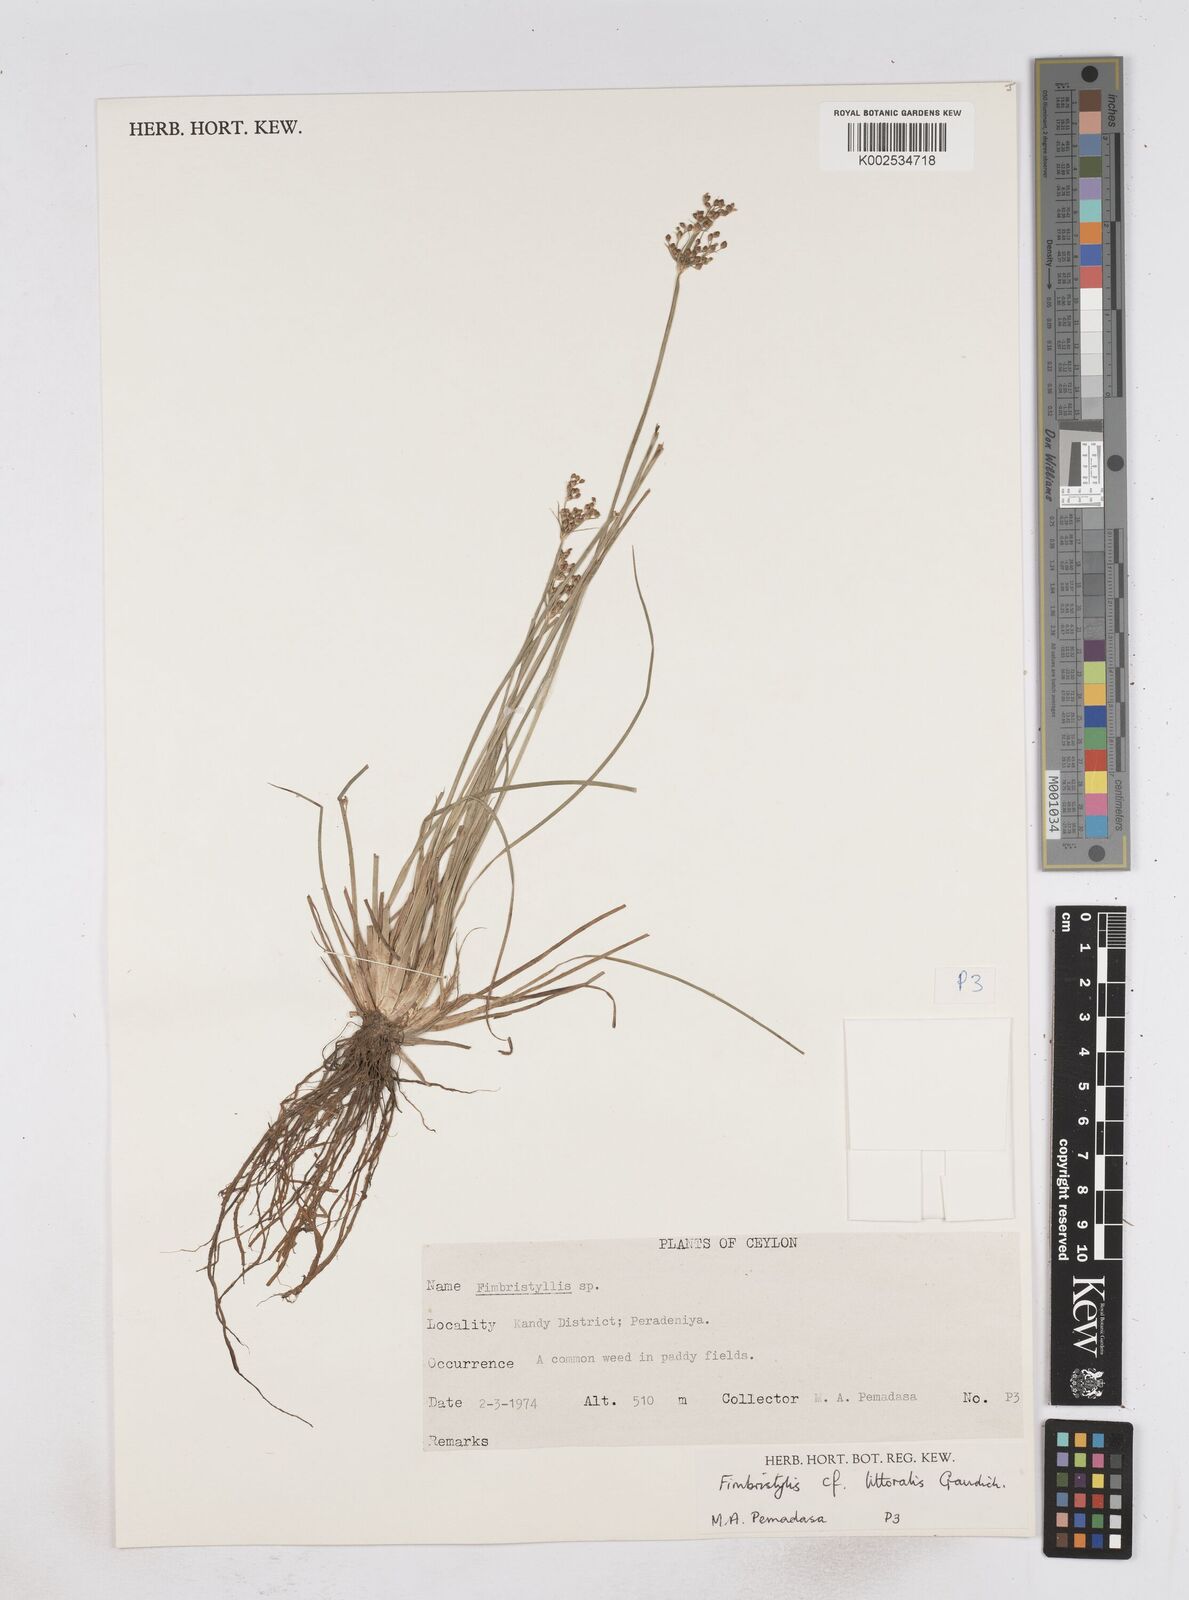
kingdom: Plantae
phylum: Tracheophyta
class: Liliopsida
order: Poales
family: Cyperaceae
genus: Fimbristylis
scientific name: Fimbristylis littoralis
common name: Fimbry
